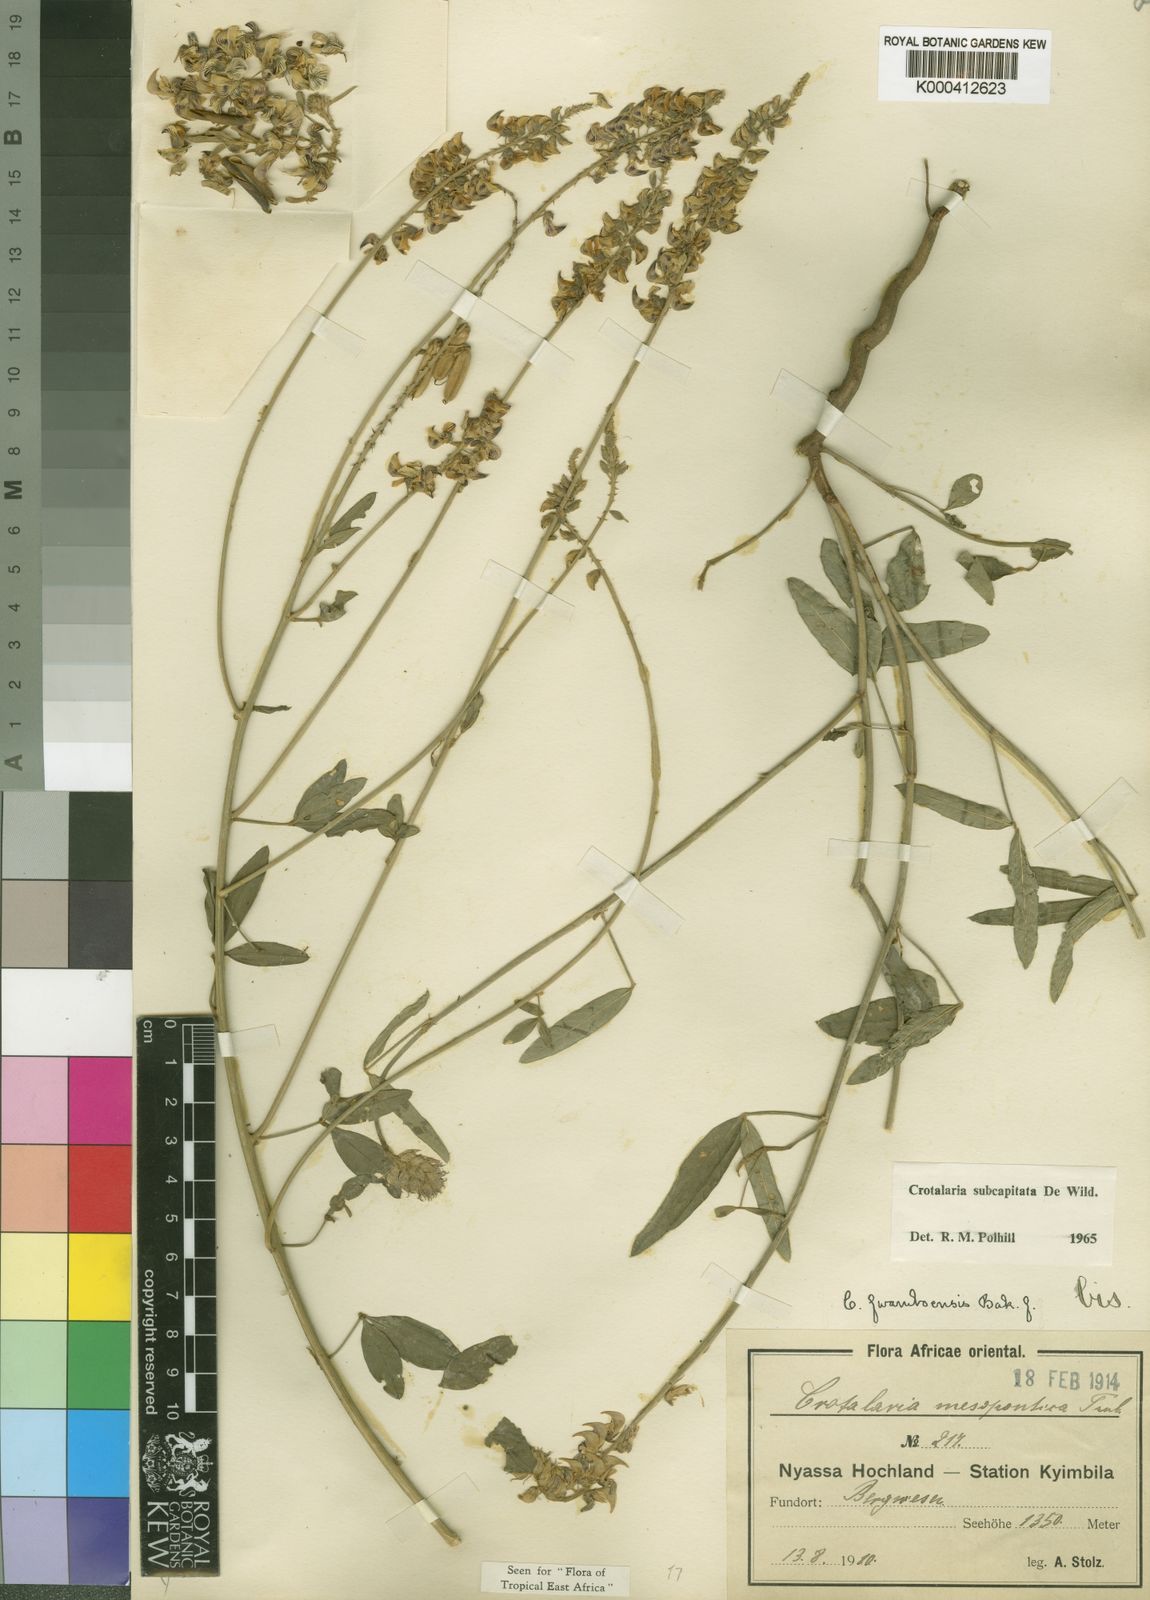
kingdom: Plantae
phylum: Tracheophyta
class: Magnoliopsida
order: Fabales
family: Fabaceae
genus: Crotalaria
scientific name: Crotalaria subcapitata
